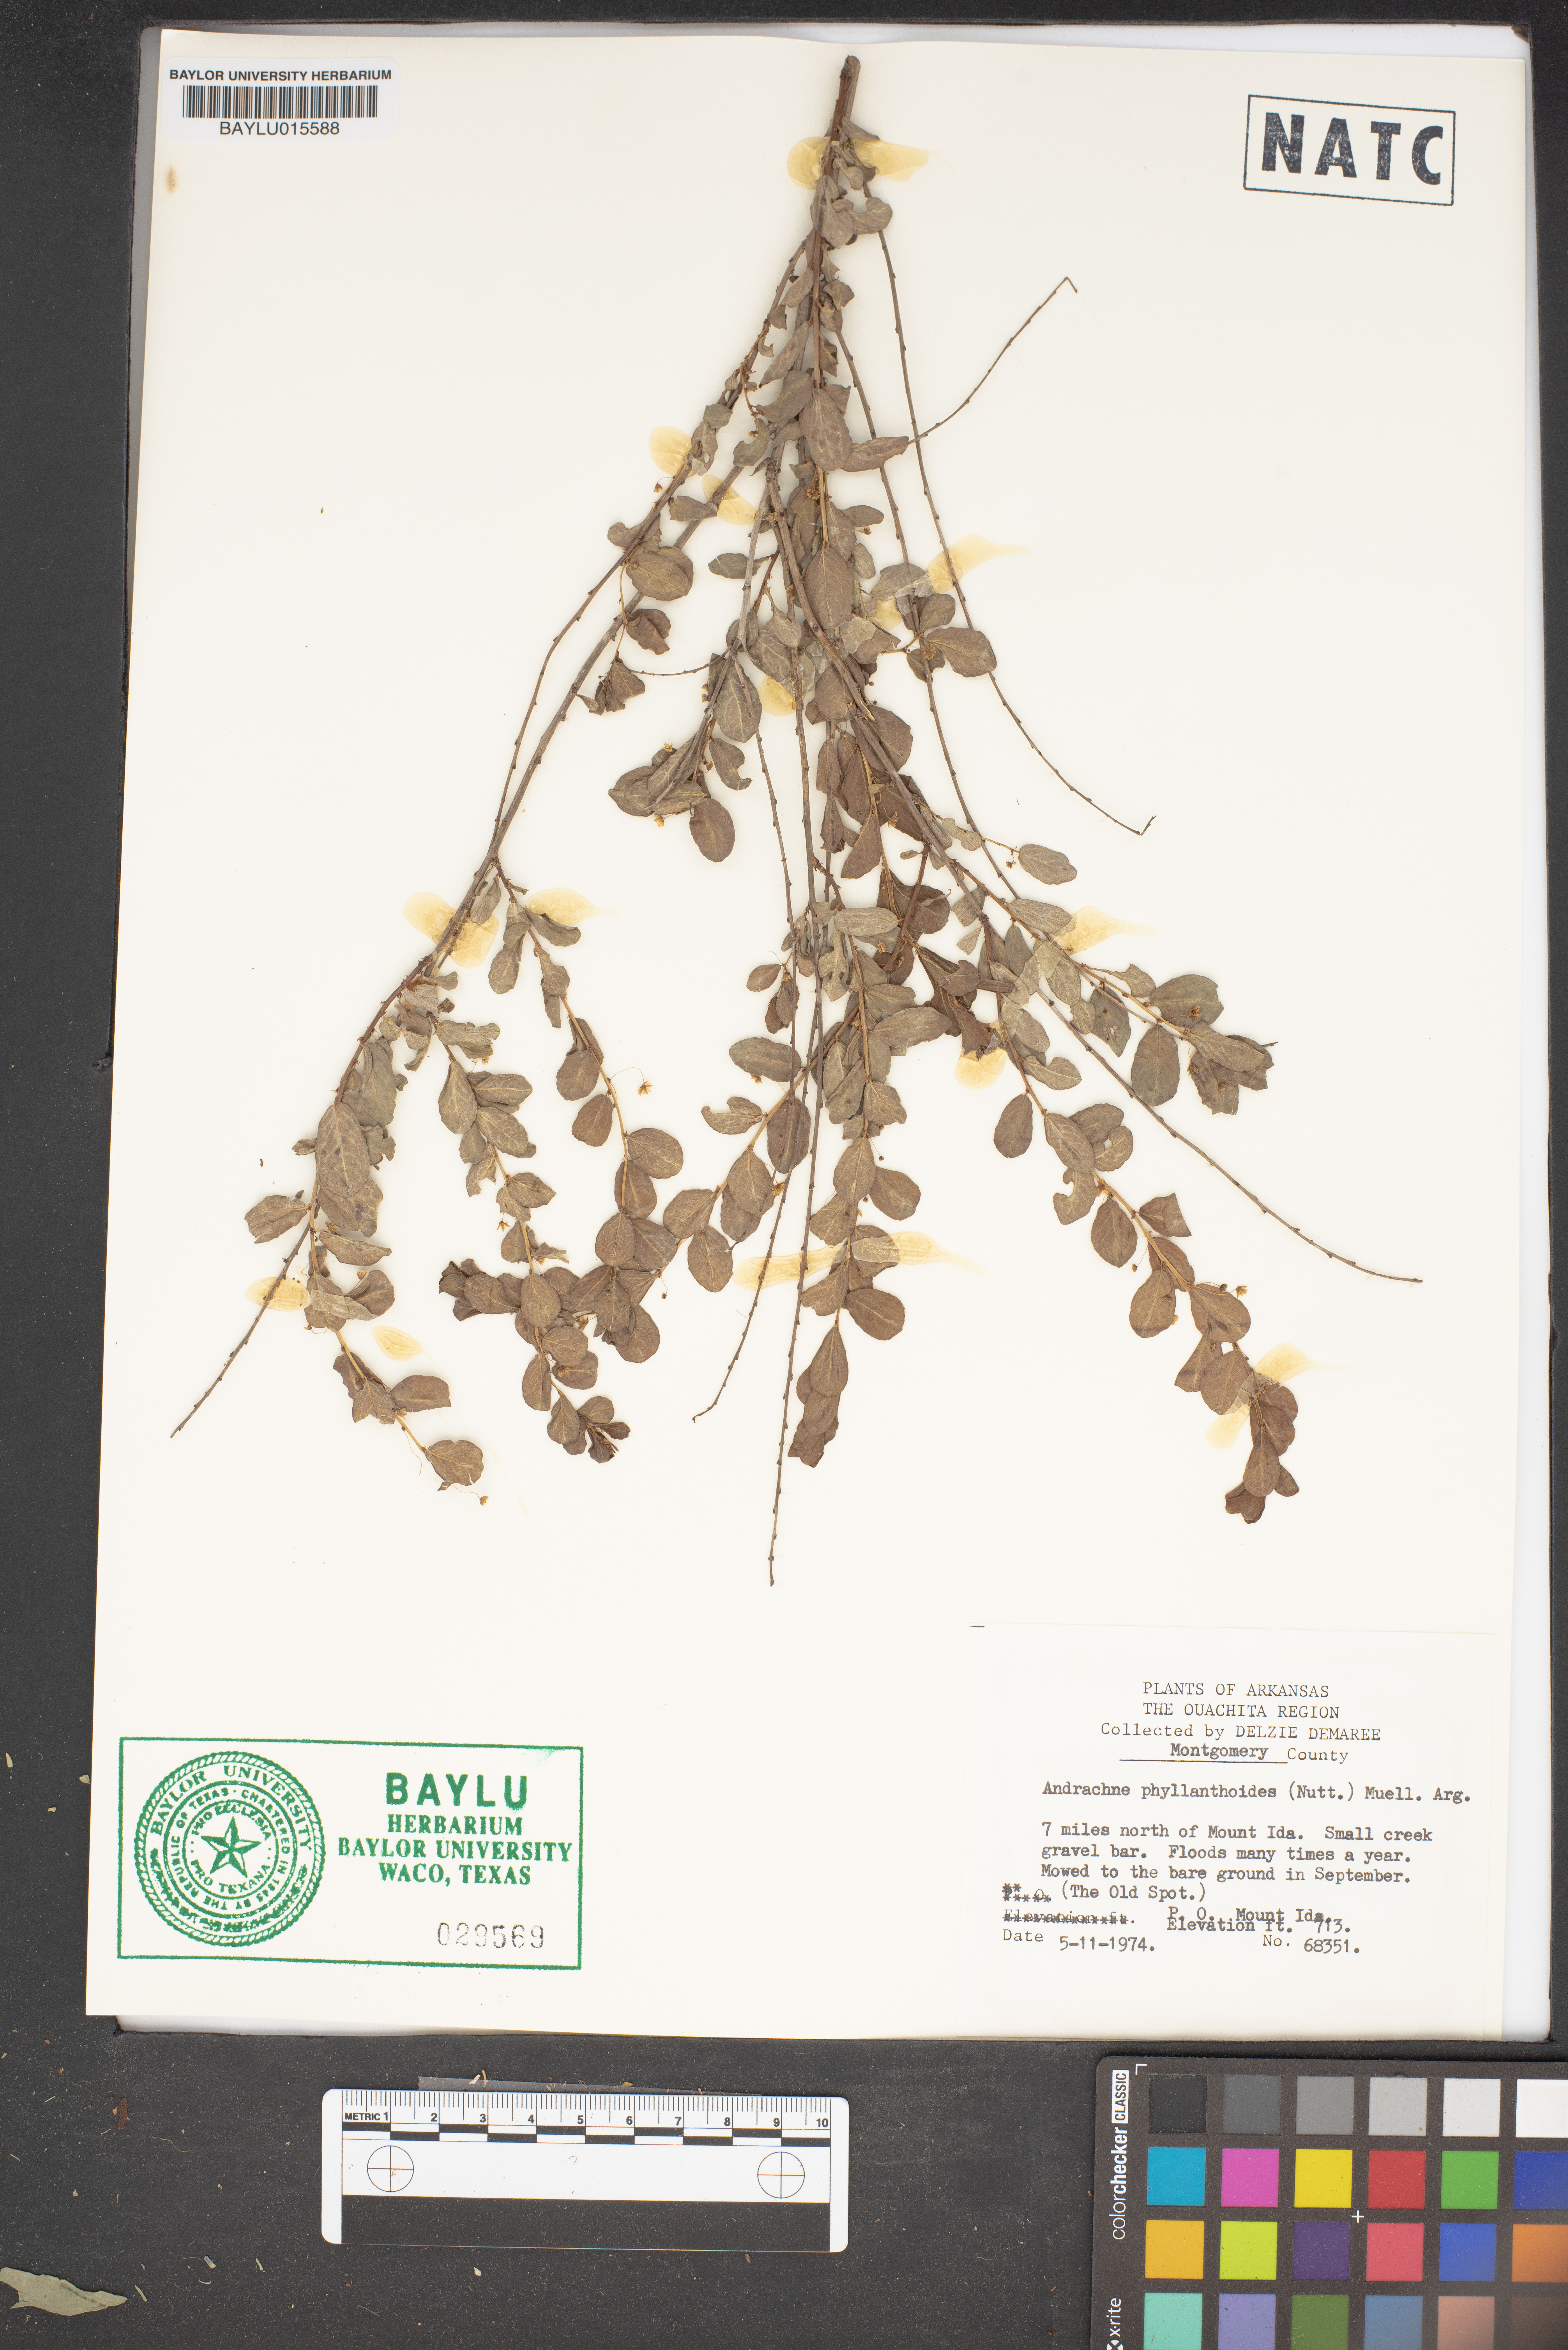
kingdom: Plantae
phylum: Tracheophyta
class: Magnoliopsida
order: Malpighiales
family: Phyllanthaceae
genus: Phyllanthopsis
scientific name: Phyllanthopsis phyllanthoides
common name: Missouri maidenbush
